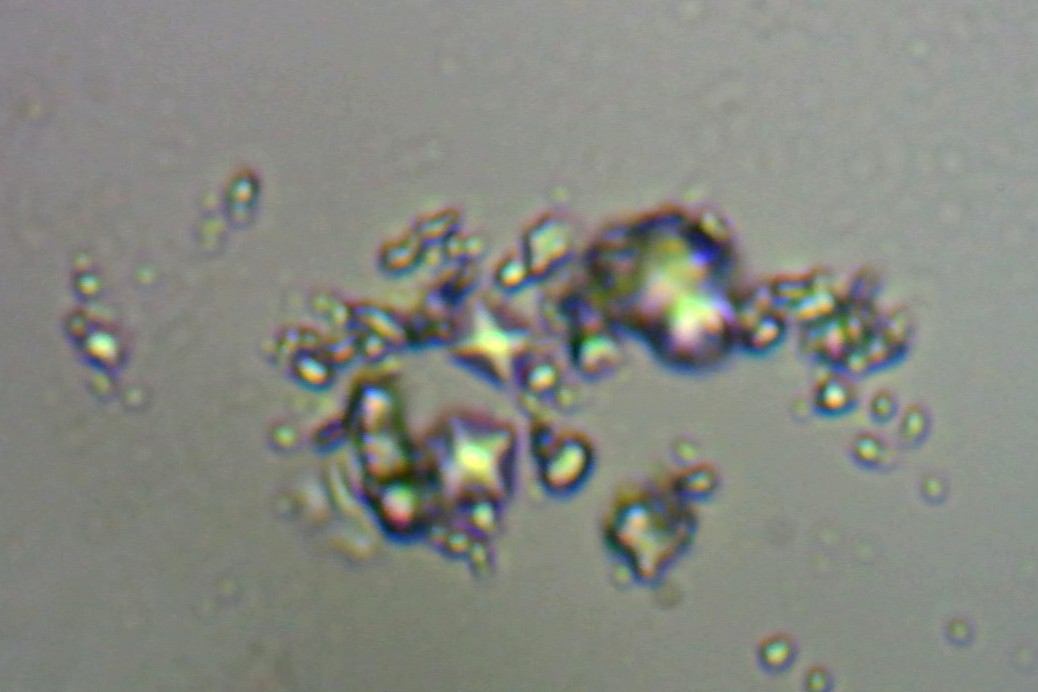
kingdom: Fungi
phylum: Ascomycota
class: Lecanoromycetes
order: Lecanorales
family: Parmeliaceae
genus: Punctelia
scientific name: Punctelia jeckeri
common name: randstøvet skållav
